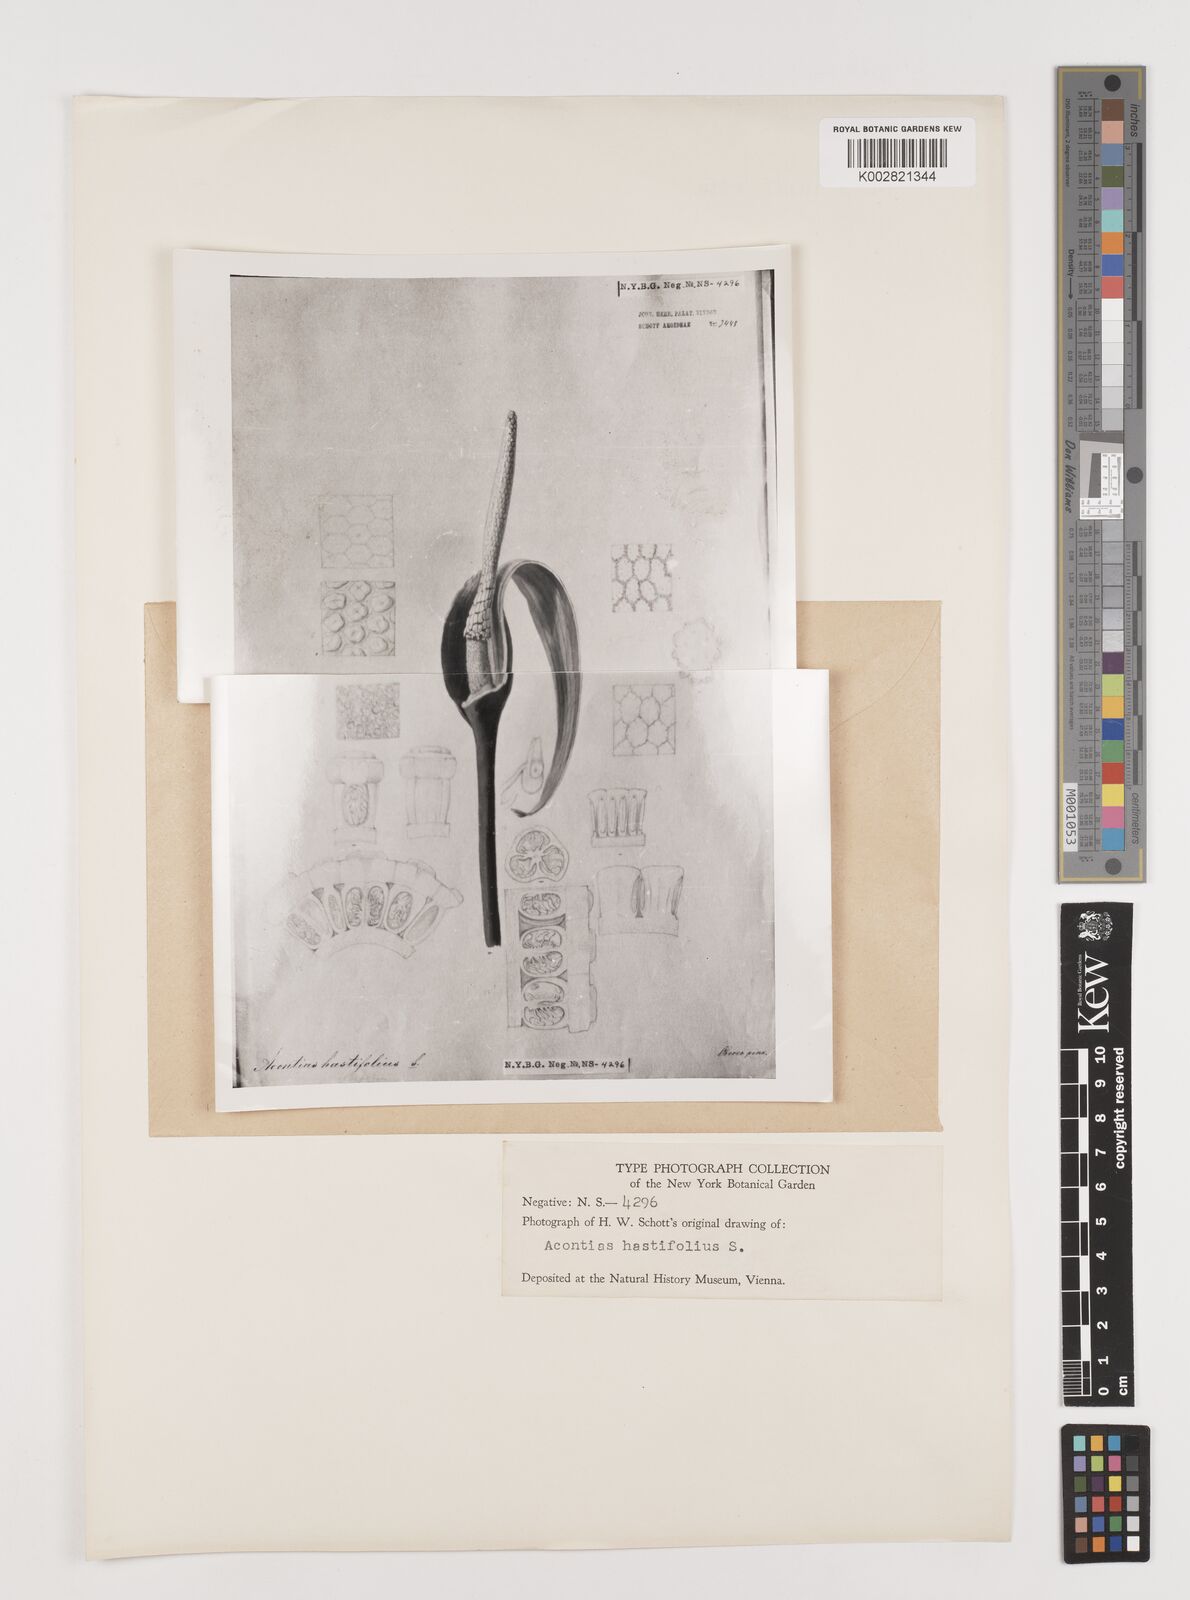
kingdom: Plantae
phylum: Tracheophyta
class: Liliopsida
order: Alismatales
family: Araceae
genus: Xanthosoma
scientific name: Xanthosoma brasiliense
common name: Tahitian-spinach
